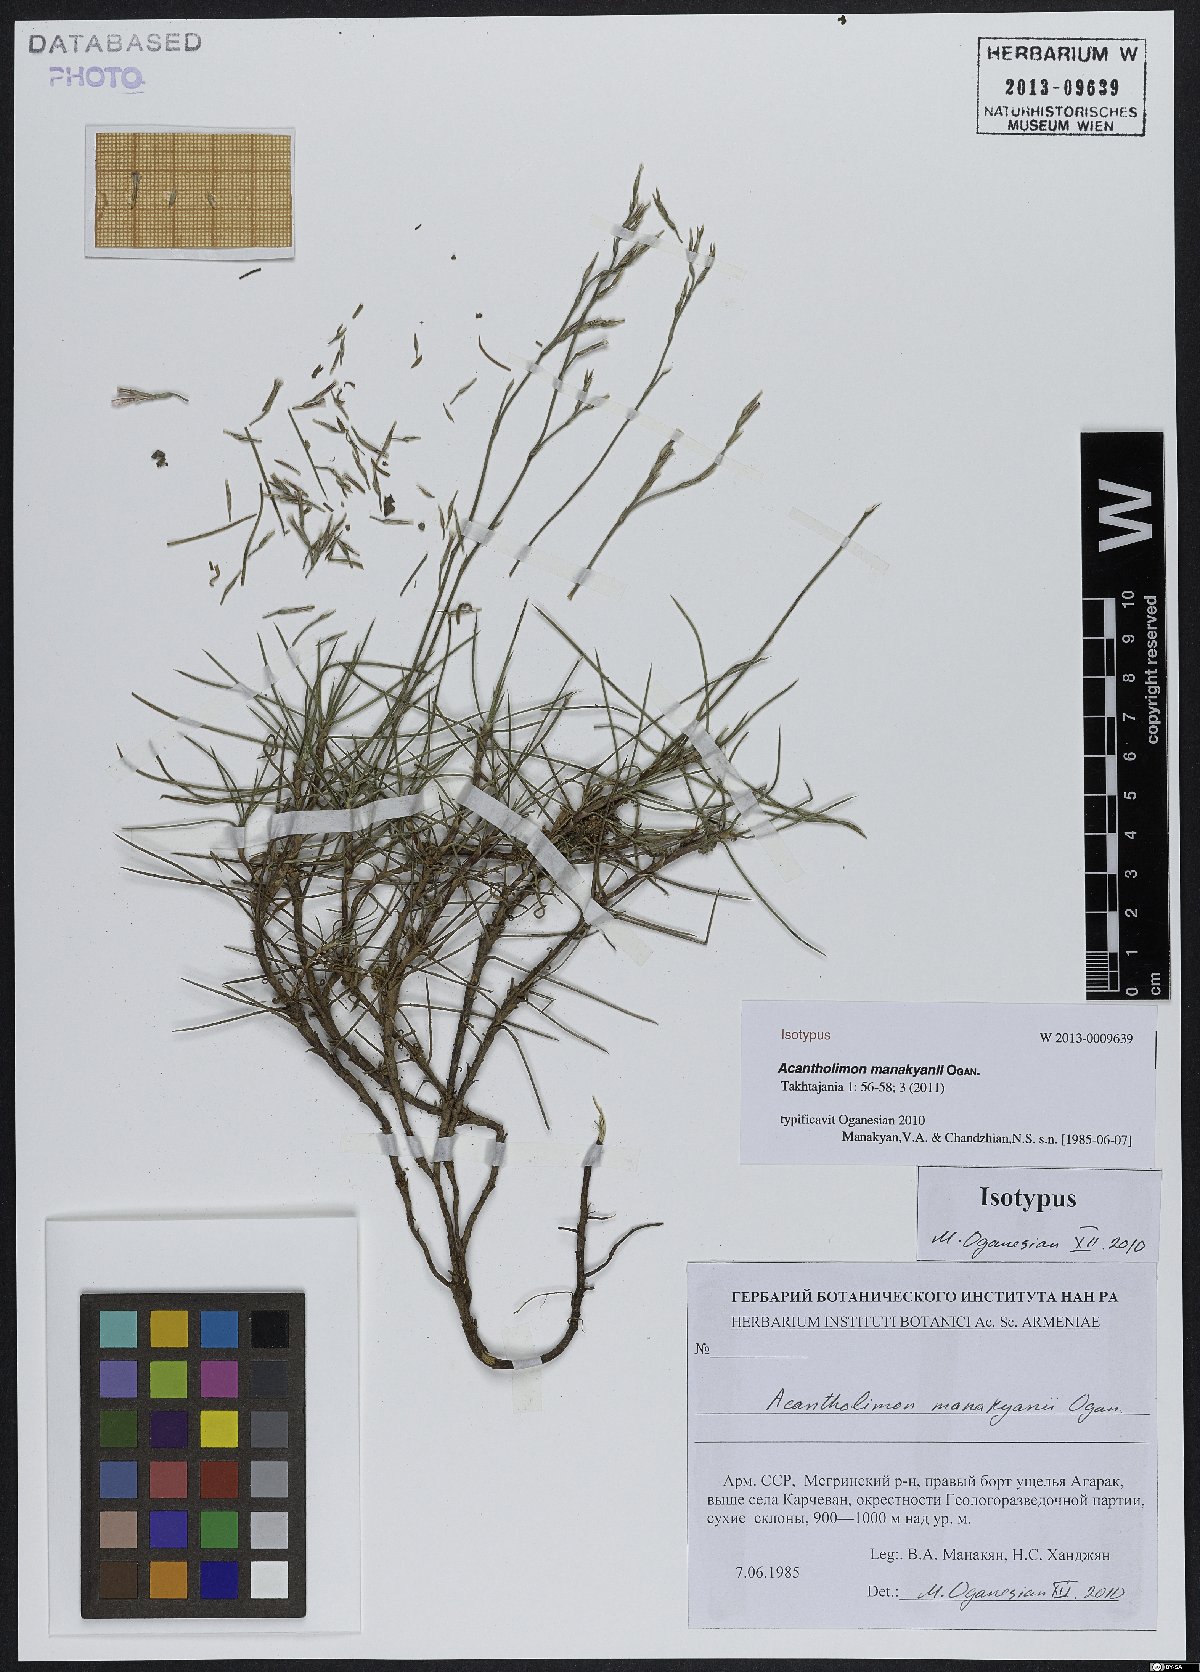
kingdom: Plantae
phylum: Tracheophyta
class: Magnoliopsida
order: Caryophyllales
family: Plumbaginaceae
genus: Acantholimon
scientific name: Acantholimon manakyanii
